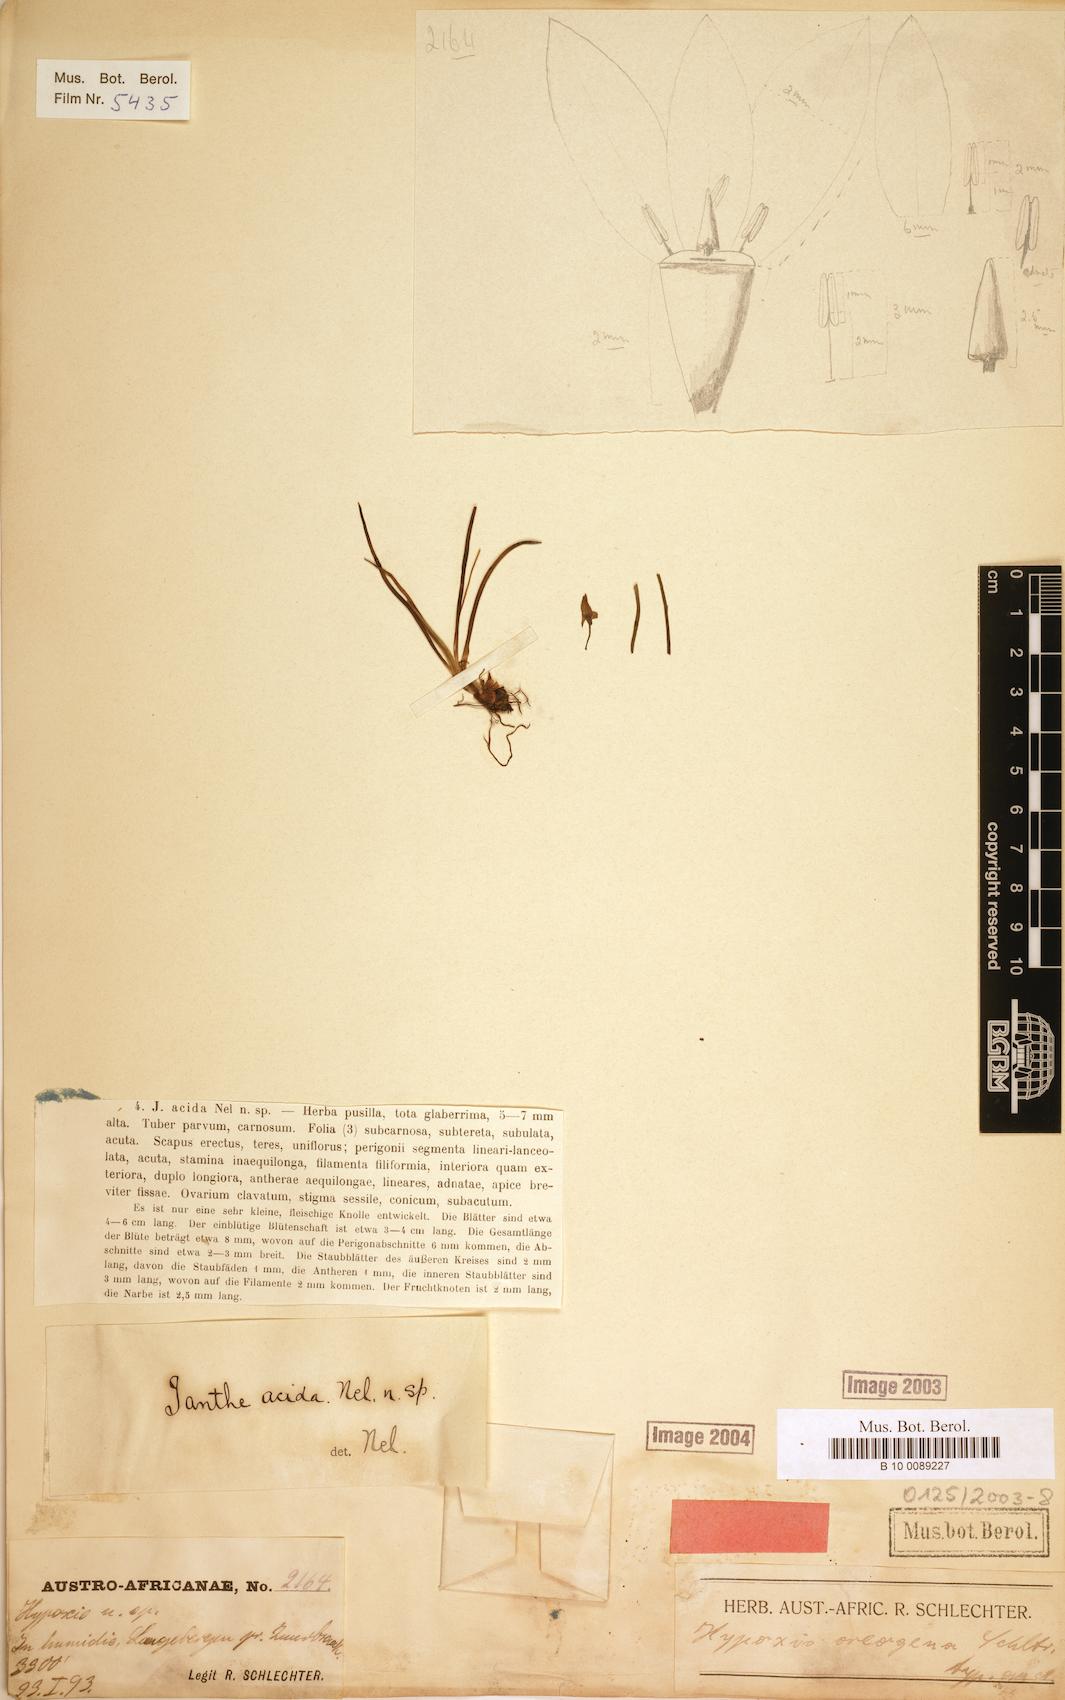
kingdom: Plantae
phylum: Tracheophyta
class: Liliopsida
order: Asparagales
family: Hypoxidaceae
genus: Pauridia
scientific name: Pauridia acida
